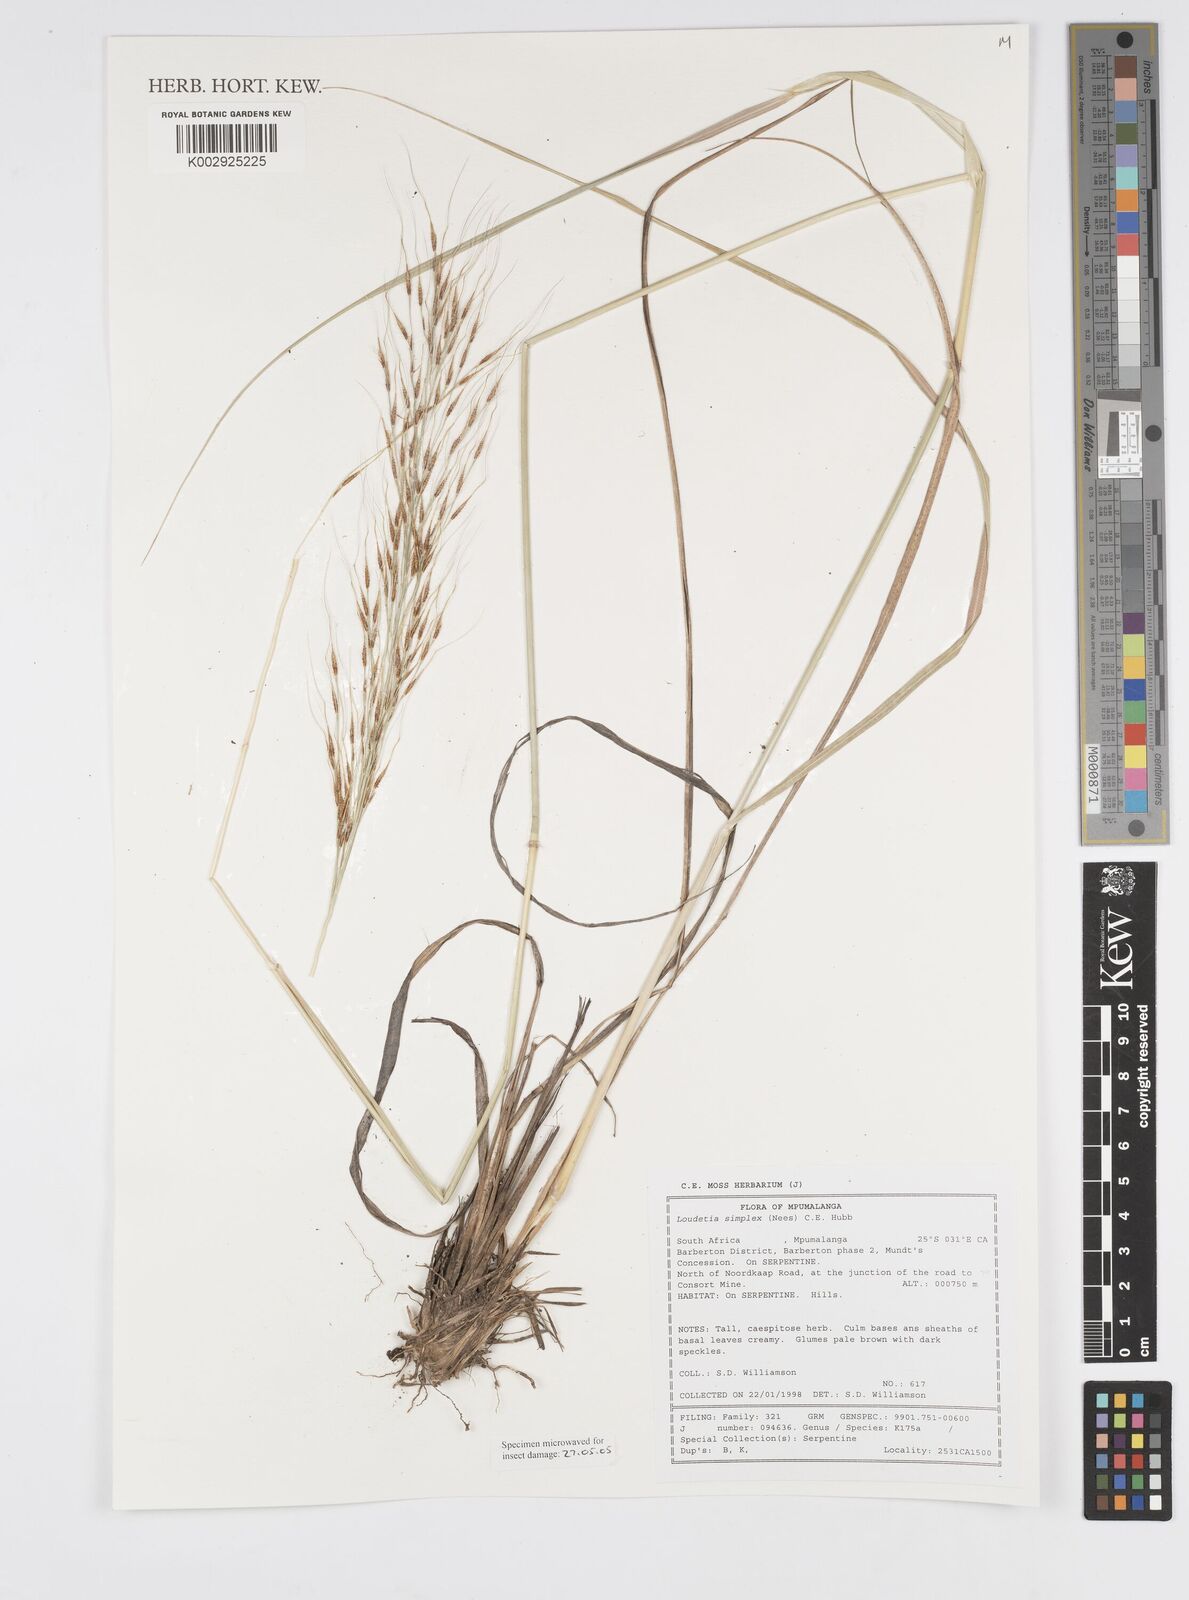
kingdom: Plantae
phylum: Tracheophyta
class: Liliopsida
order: Poales
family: Poaceae
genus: Loudetia
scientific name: Loudetia simplex
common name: Common russet grass
